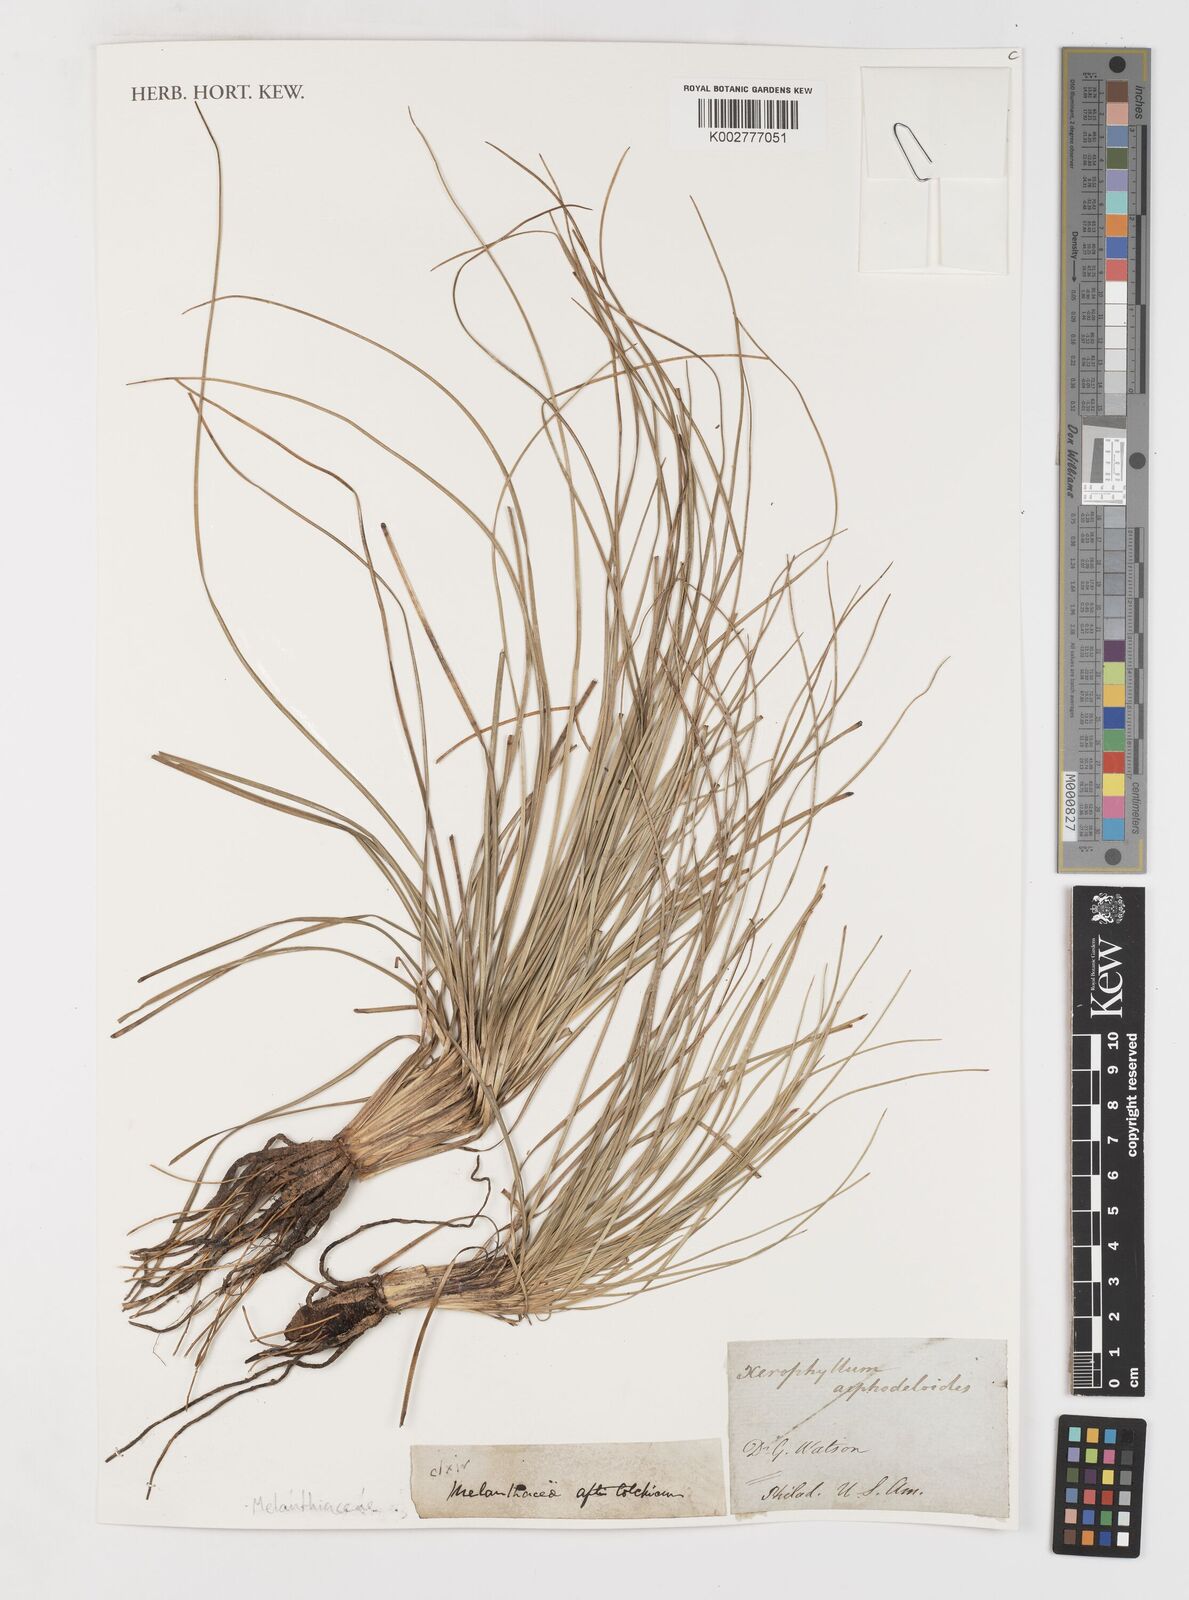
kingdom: Plantae
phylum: Tracheophyta
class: Liliopsida
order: Liliales
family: Melanthiaceae
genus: Xerophyllum
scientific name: Xerophyllum asphodeloides
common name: Mountain-asphodel
